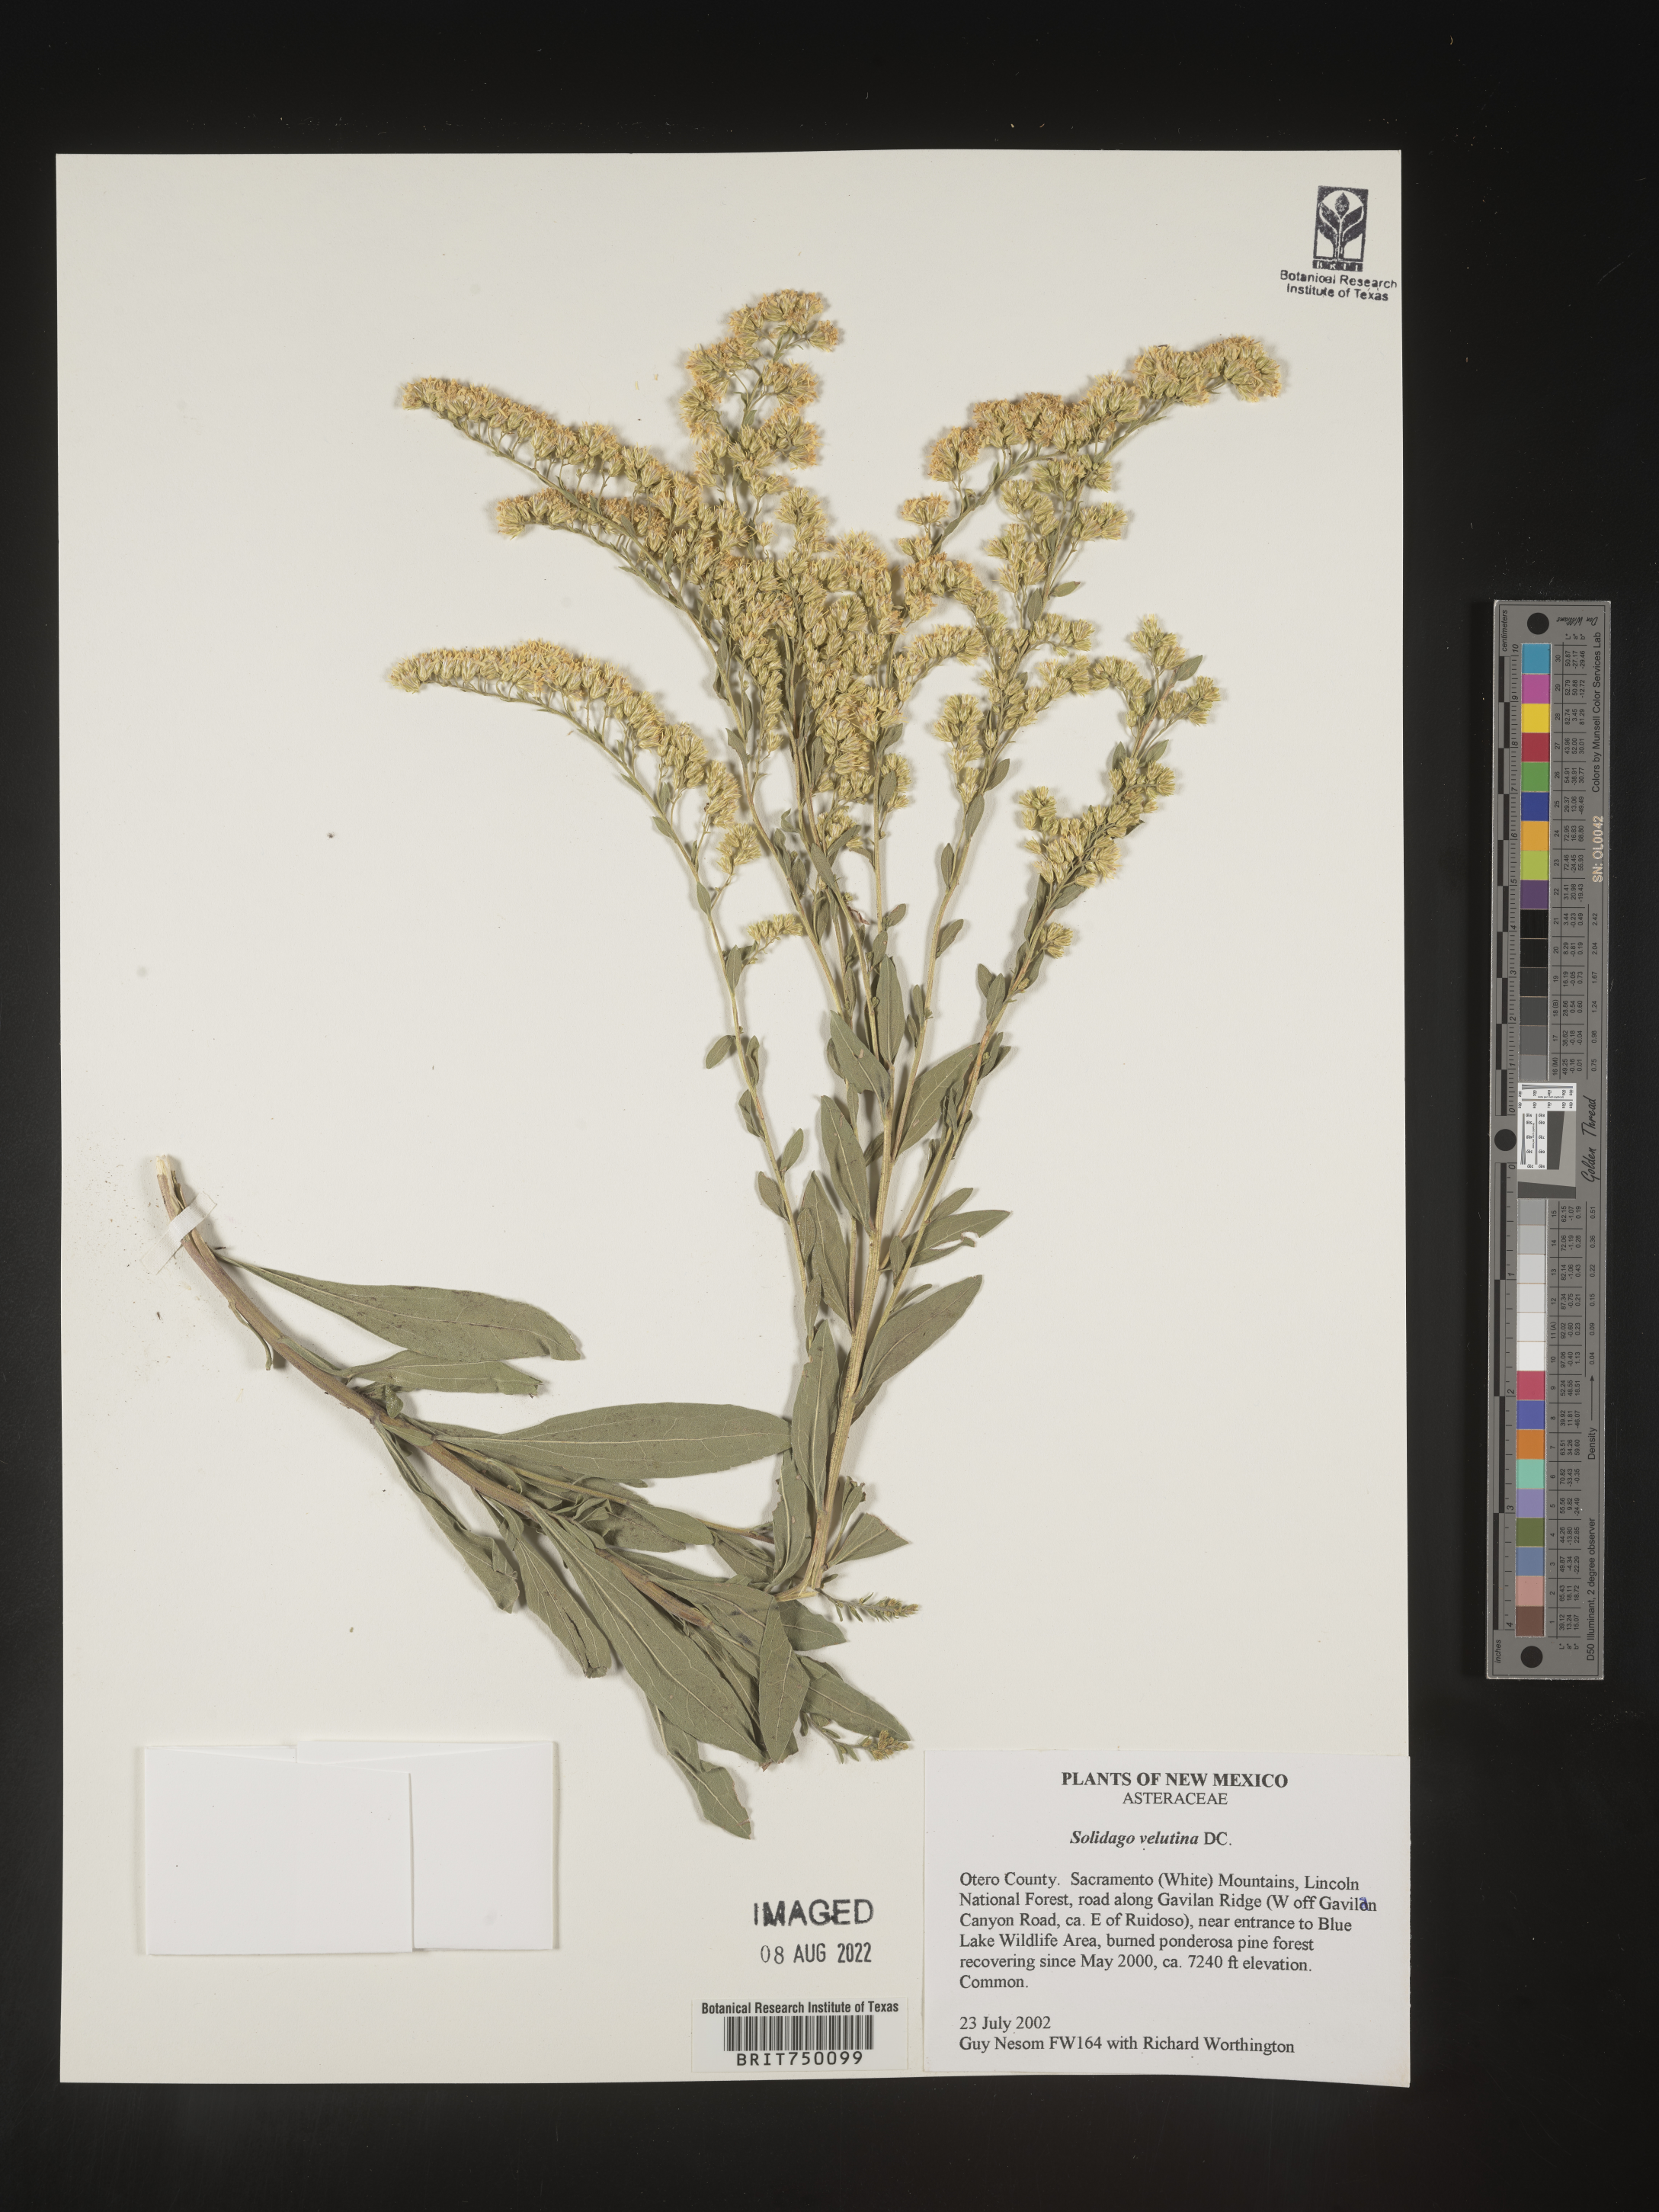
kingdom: Plantae
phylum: Tracheophyta
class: Magnoliopsida
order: Asterales
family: Asteraceae
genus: Solidago
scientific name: Solidago velutina
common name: Three-nerve goldenrod
